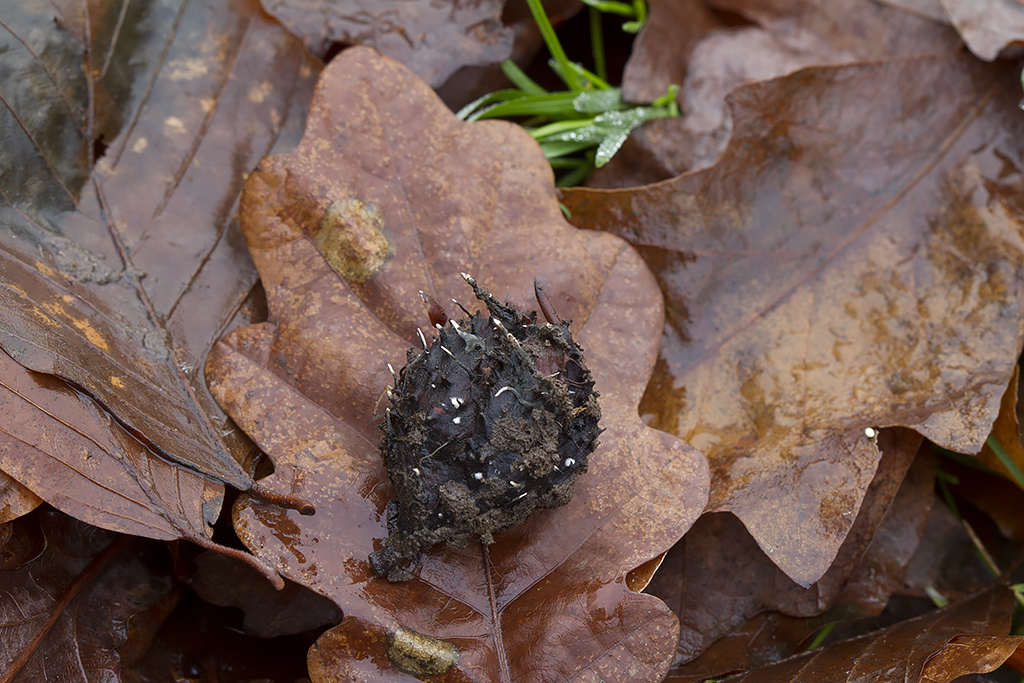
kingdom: Fungi
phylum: Ascomycota
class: Sordariomycetes
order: Xylariales
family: Xylariaceae
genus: Xylaria
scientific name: Xylaria carpophila
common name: bogskål-stødsvamp
